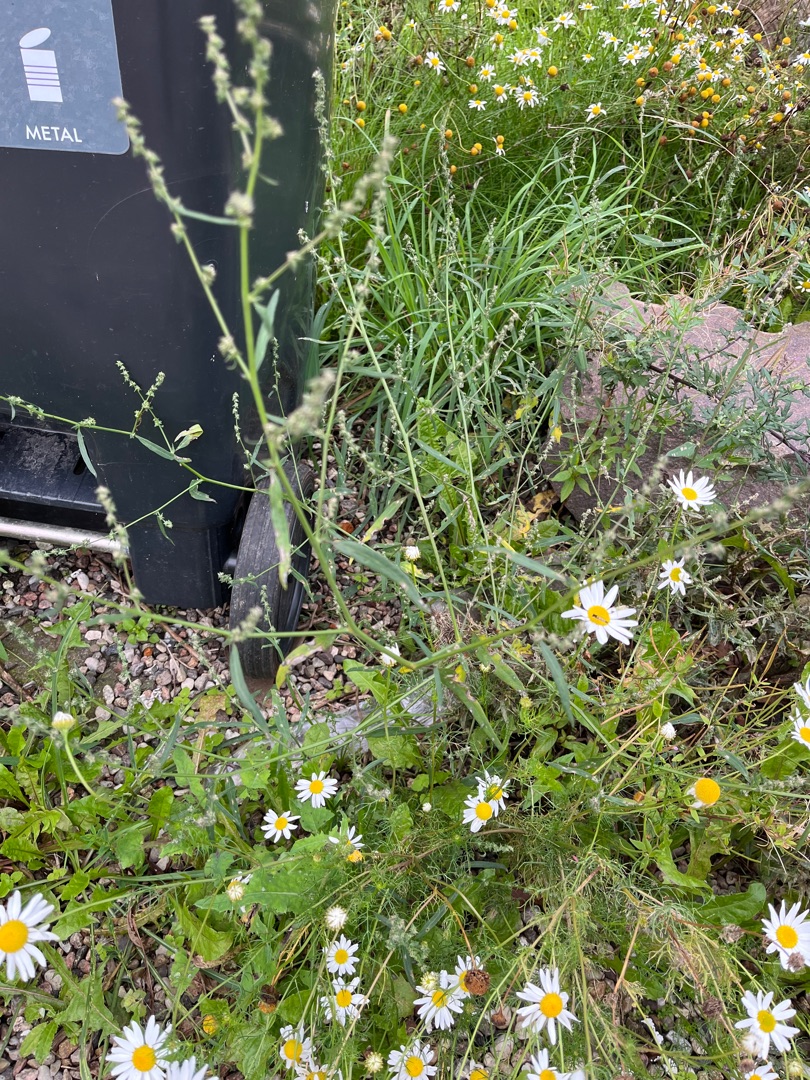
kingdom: Plantae
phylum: Tracheophyta
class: Magnoliopsida
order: Caryophyllales
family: Amaranthaceae
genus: Atriplex
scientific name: Atriplex patula
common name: Svine-mælde
